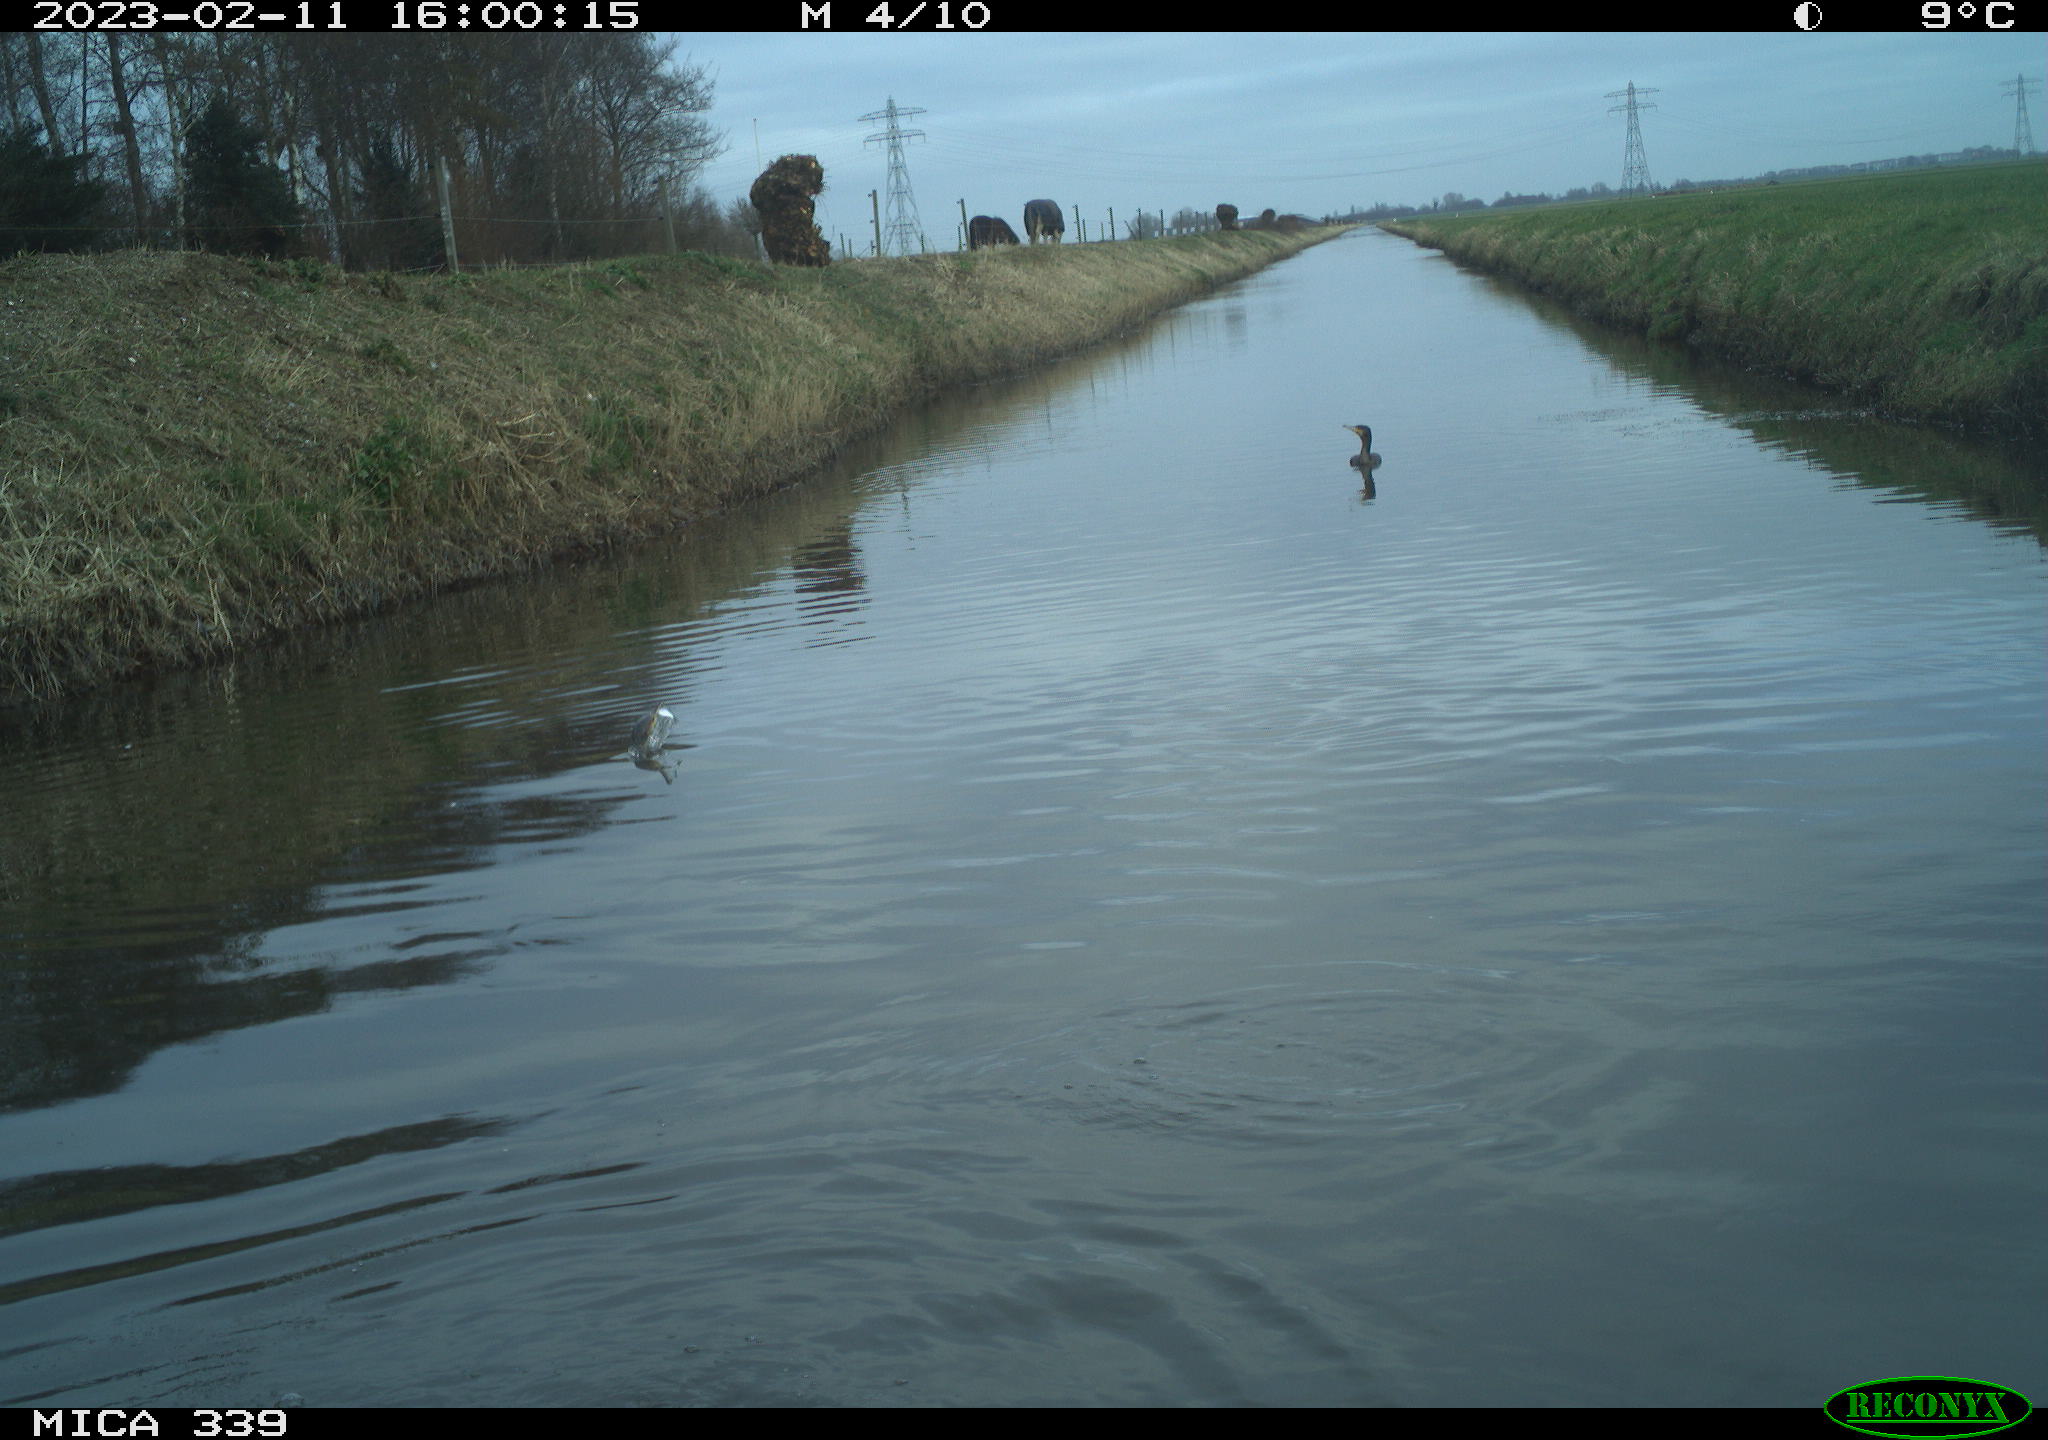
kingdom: Animalia
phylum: Chordata
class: Aves
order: Suliformes
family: Phalacrocoracidae
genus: Phalacrocorax
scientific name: Phalacrocorax carbo
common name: Great cormorant
